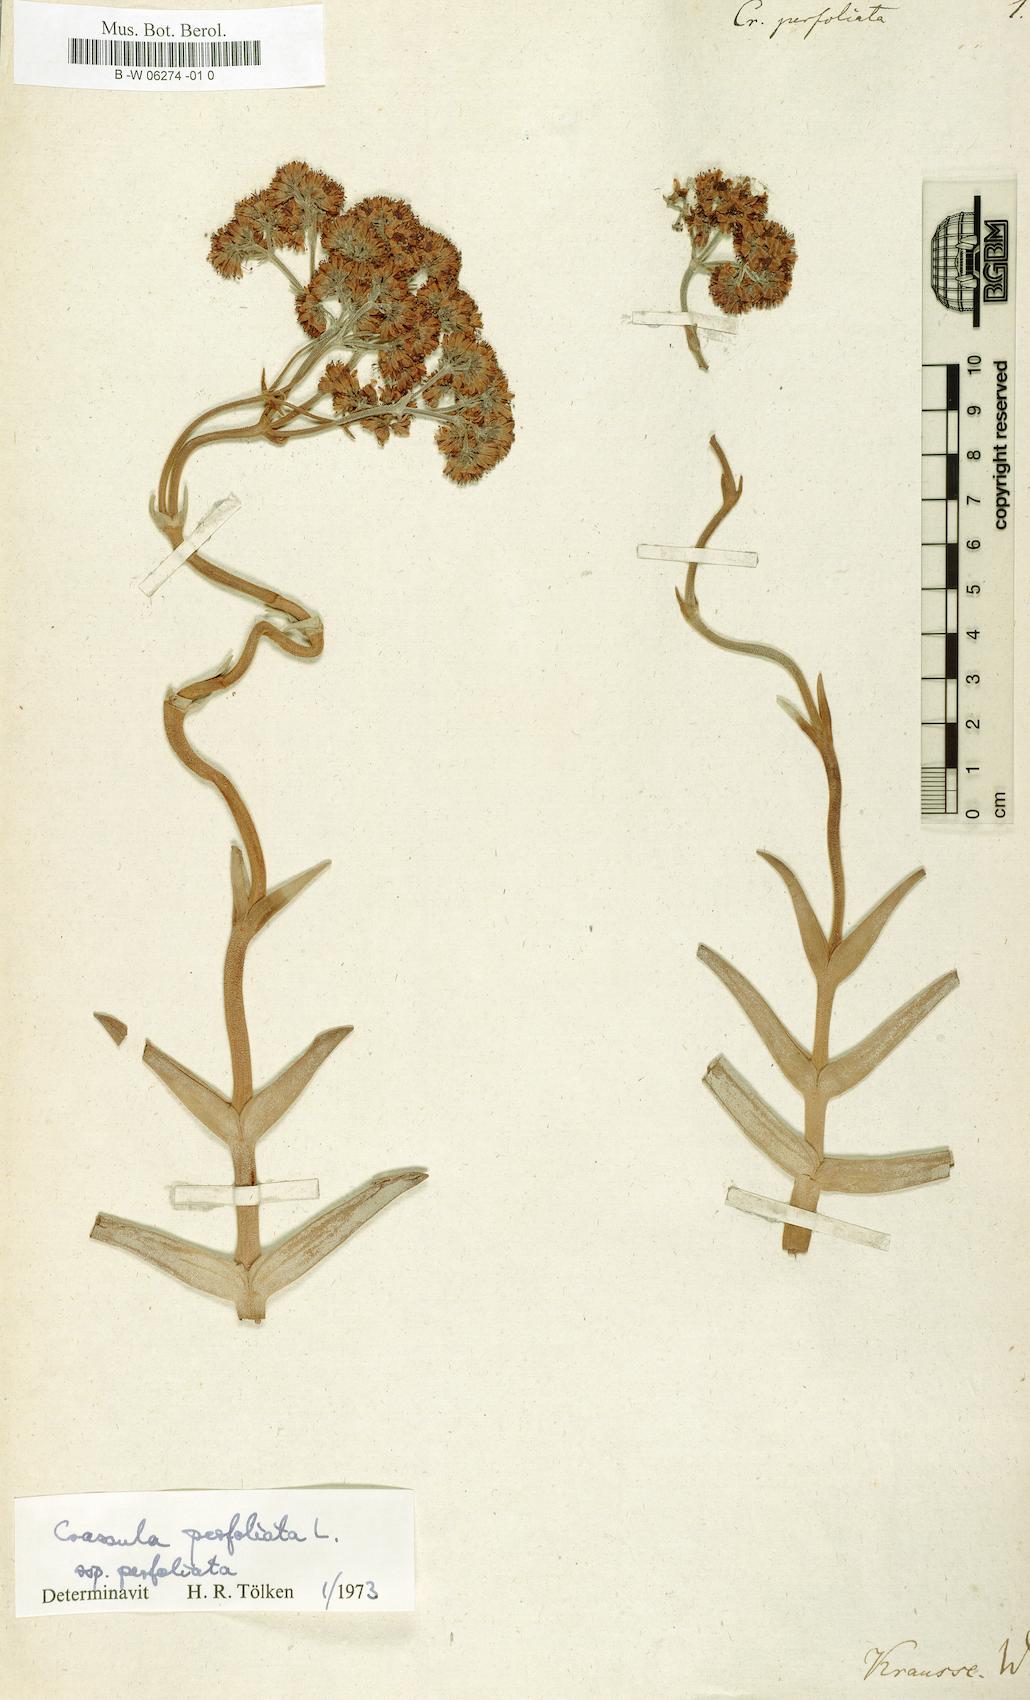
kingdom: Plantae
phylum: Tracheophyta
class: Magnoliopsida
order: Saxifragales
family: Crassulaceae
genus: Crassula
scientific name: Crassula perfoliata
